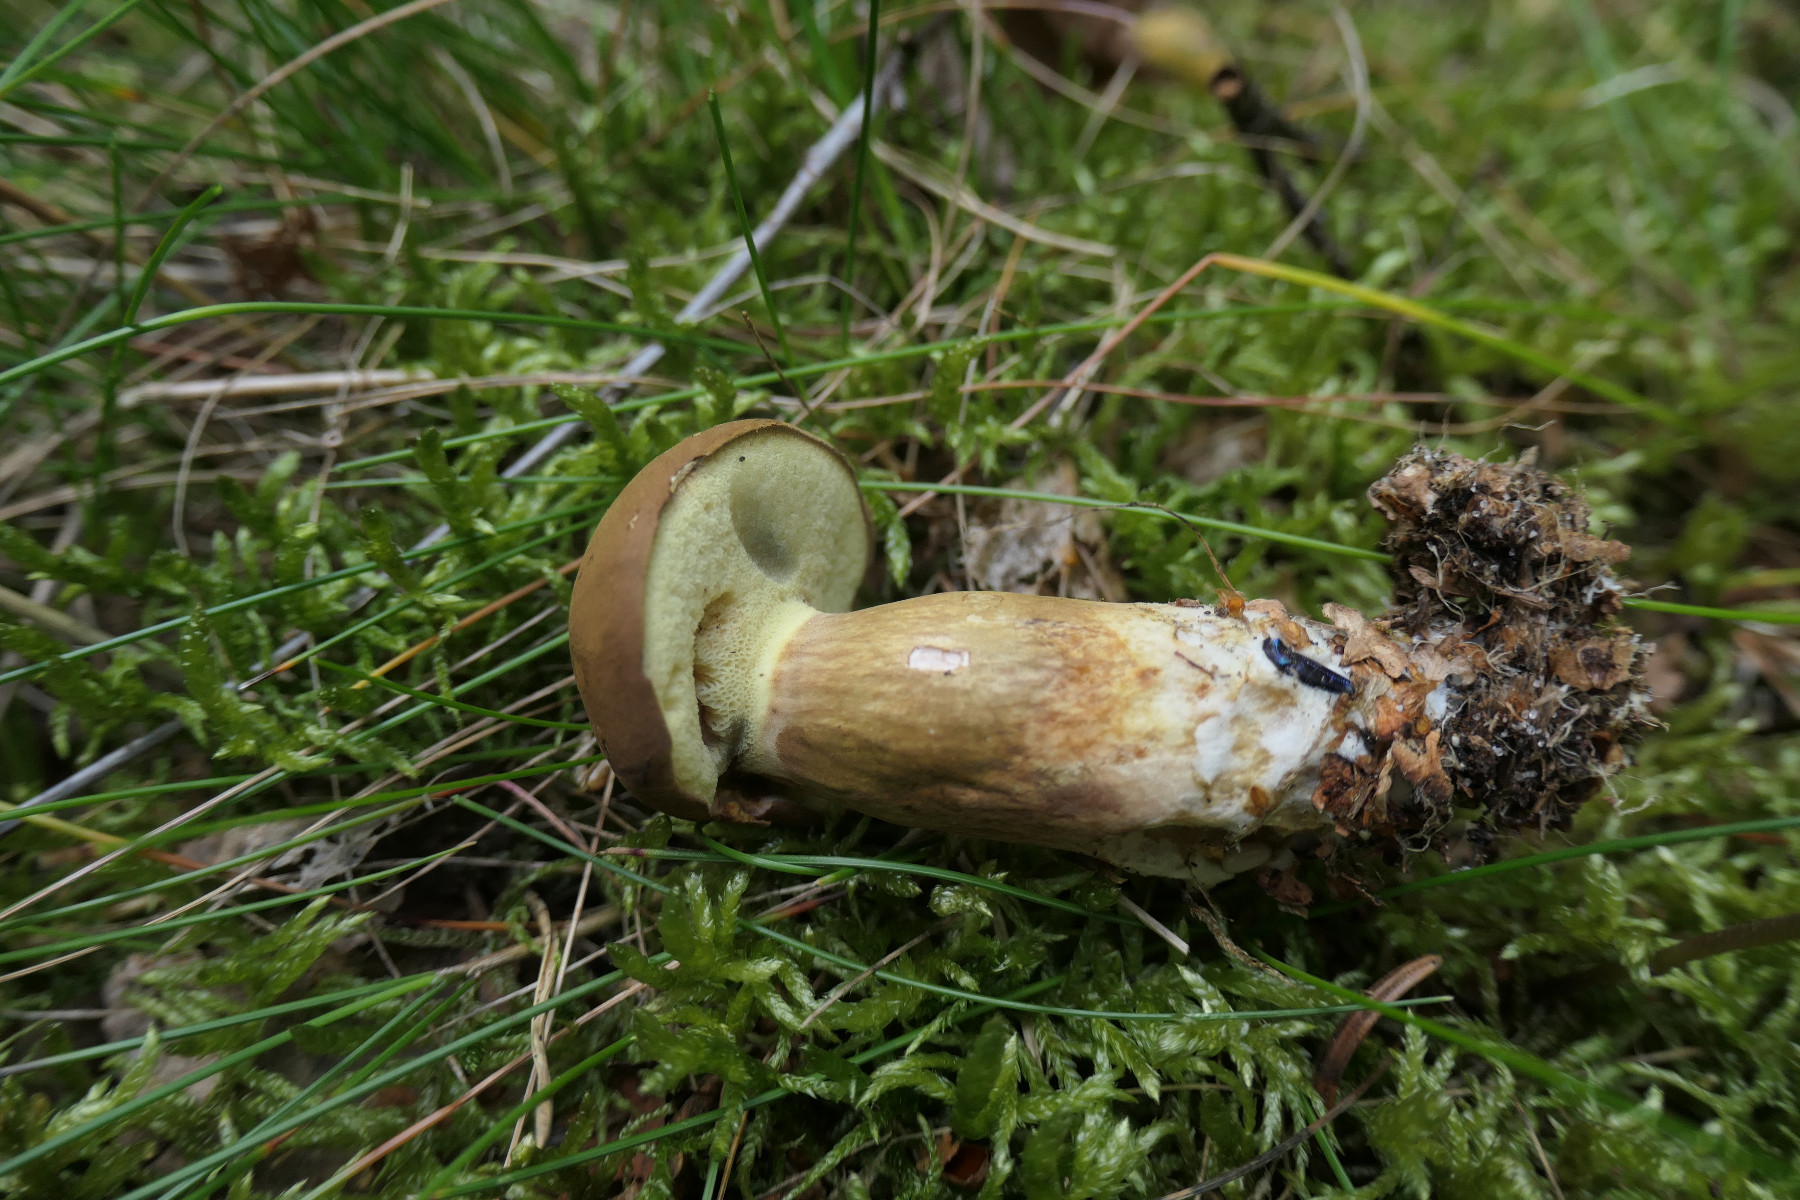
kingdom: Fungi
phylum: Basidiomycota
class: Agaricomycetes
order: Boletales
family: Boletaceae
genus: Imleria
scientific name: Imleria badia
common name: brunstokket rørhat
